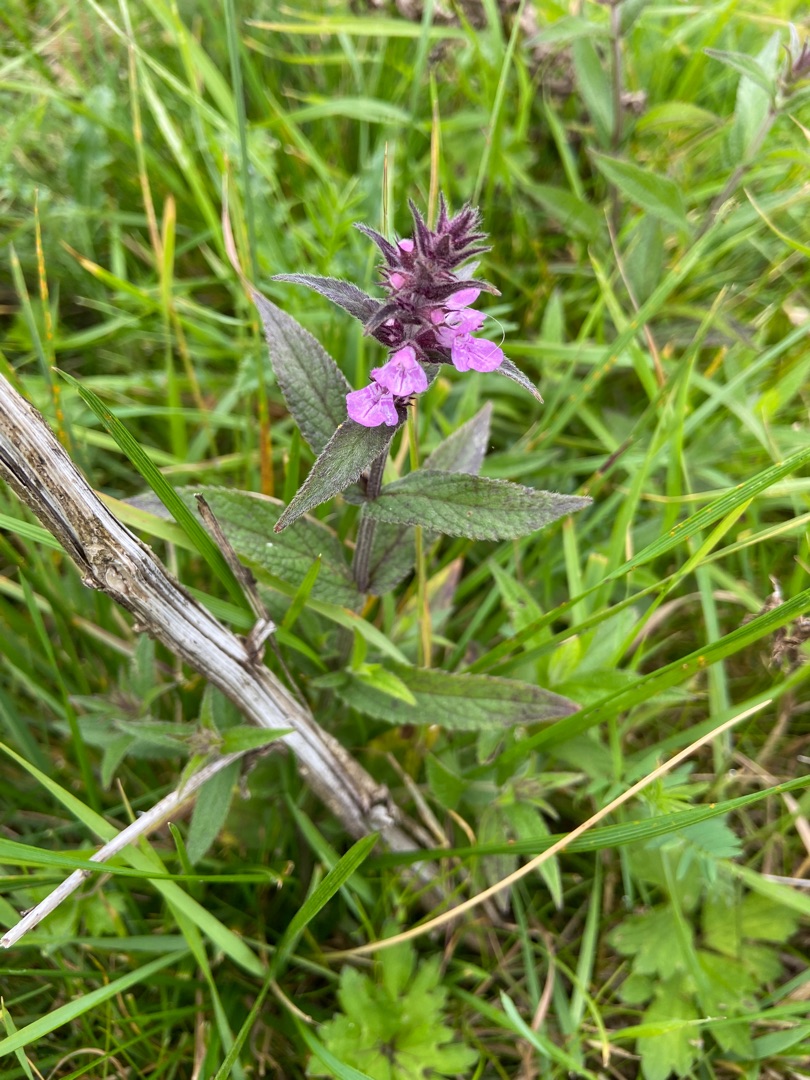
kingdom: Plantae
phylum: Tracheophyta
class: Magnoliopsida
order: Lamiales
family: Lamiaceae
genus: Stachys
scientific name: Stachys palustris
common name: Kær-galtetand
